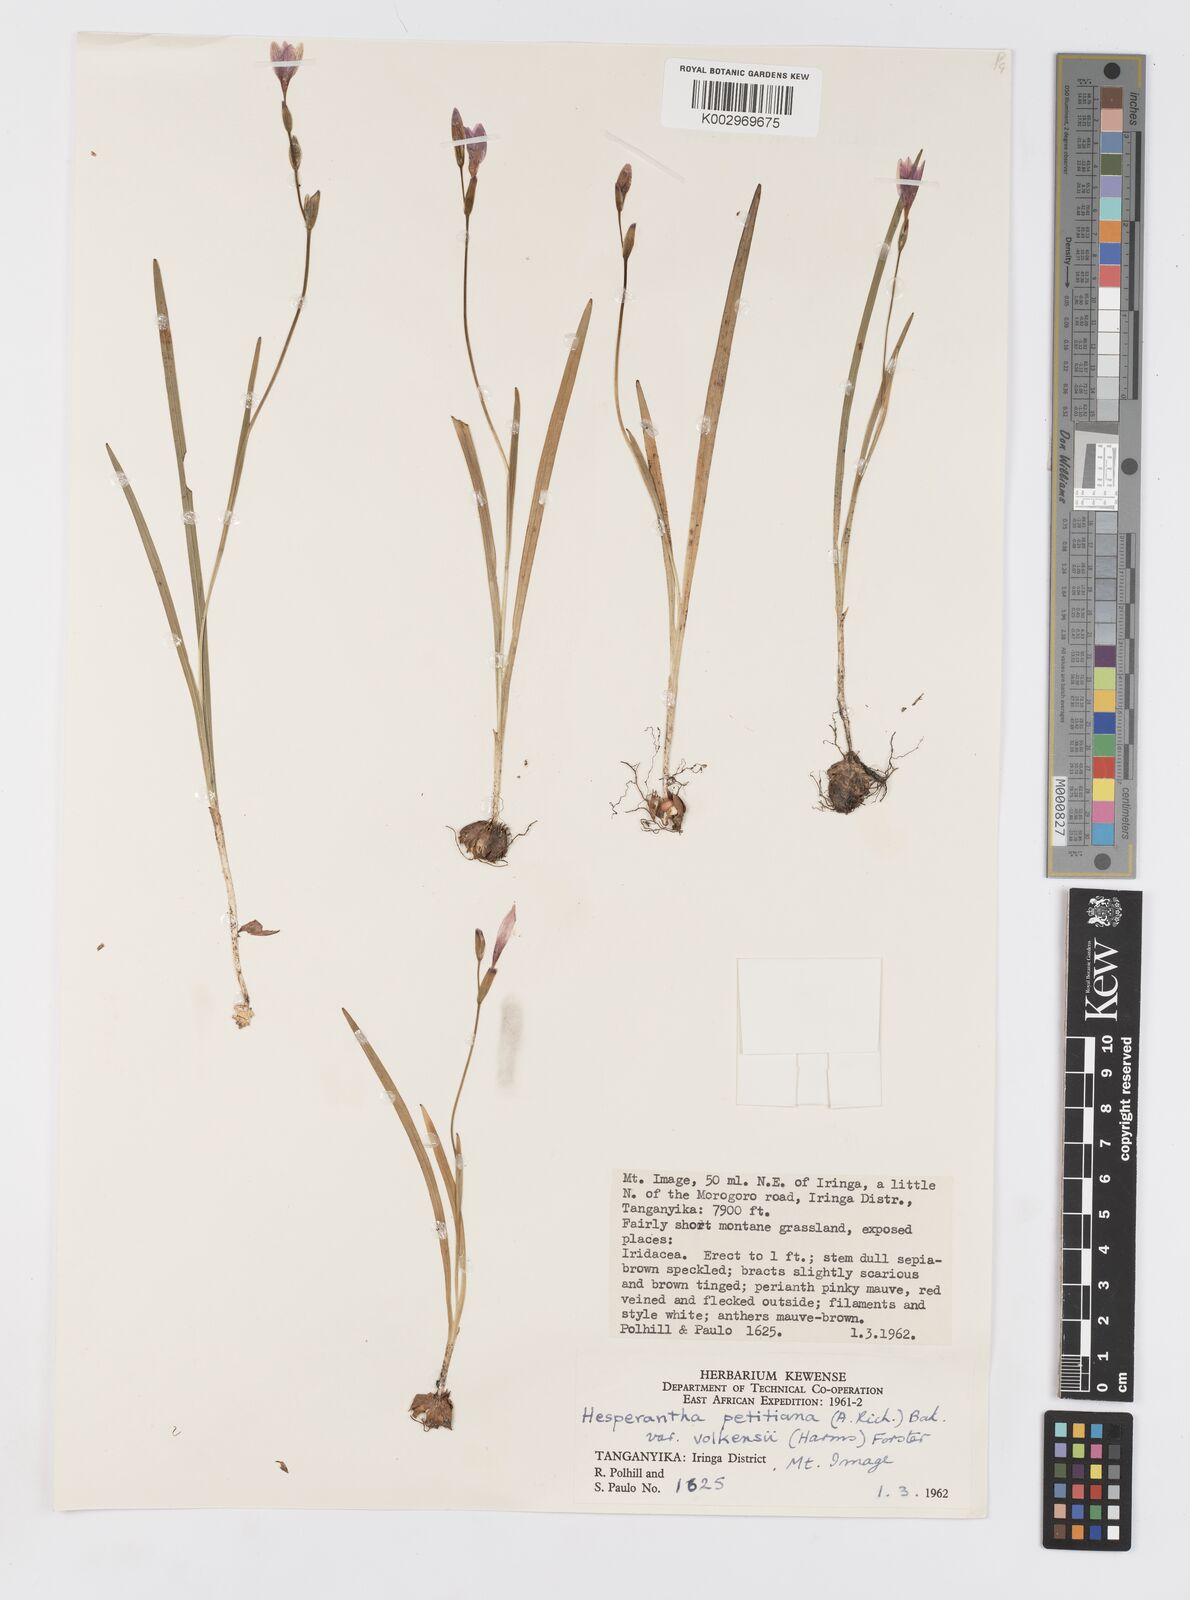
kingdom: Plantae
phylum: Tracheophyta
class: Liliopsida
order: Asparagales
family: Iridaceae
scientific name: Iridaceae
